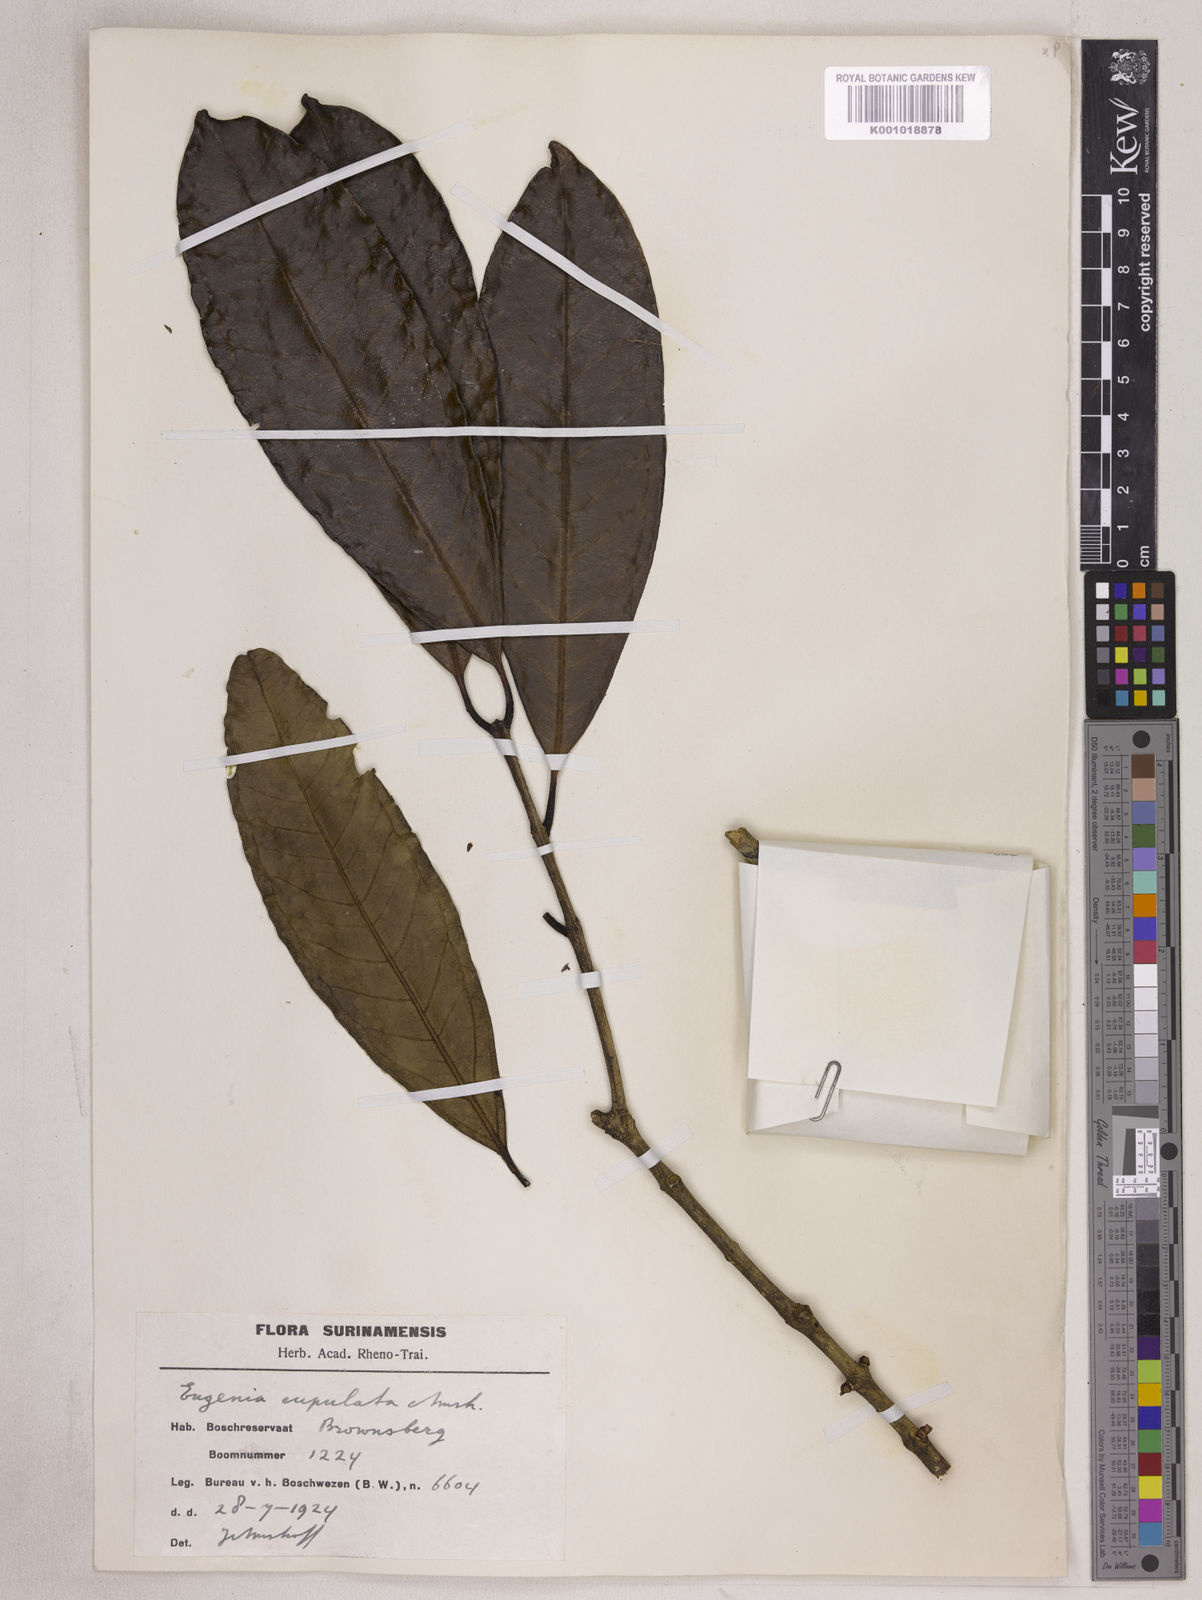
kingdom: Plantae
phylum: Tracheophyta
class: Magnoliopsida
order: Myrtales
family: Myrtaceae
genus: Eugenia
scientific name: Eugenia cupulata
